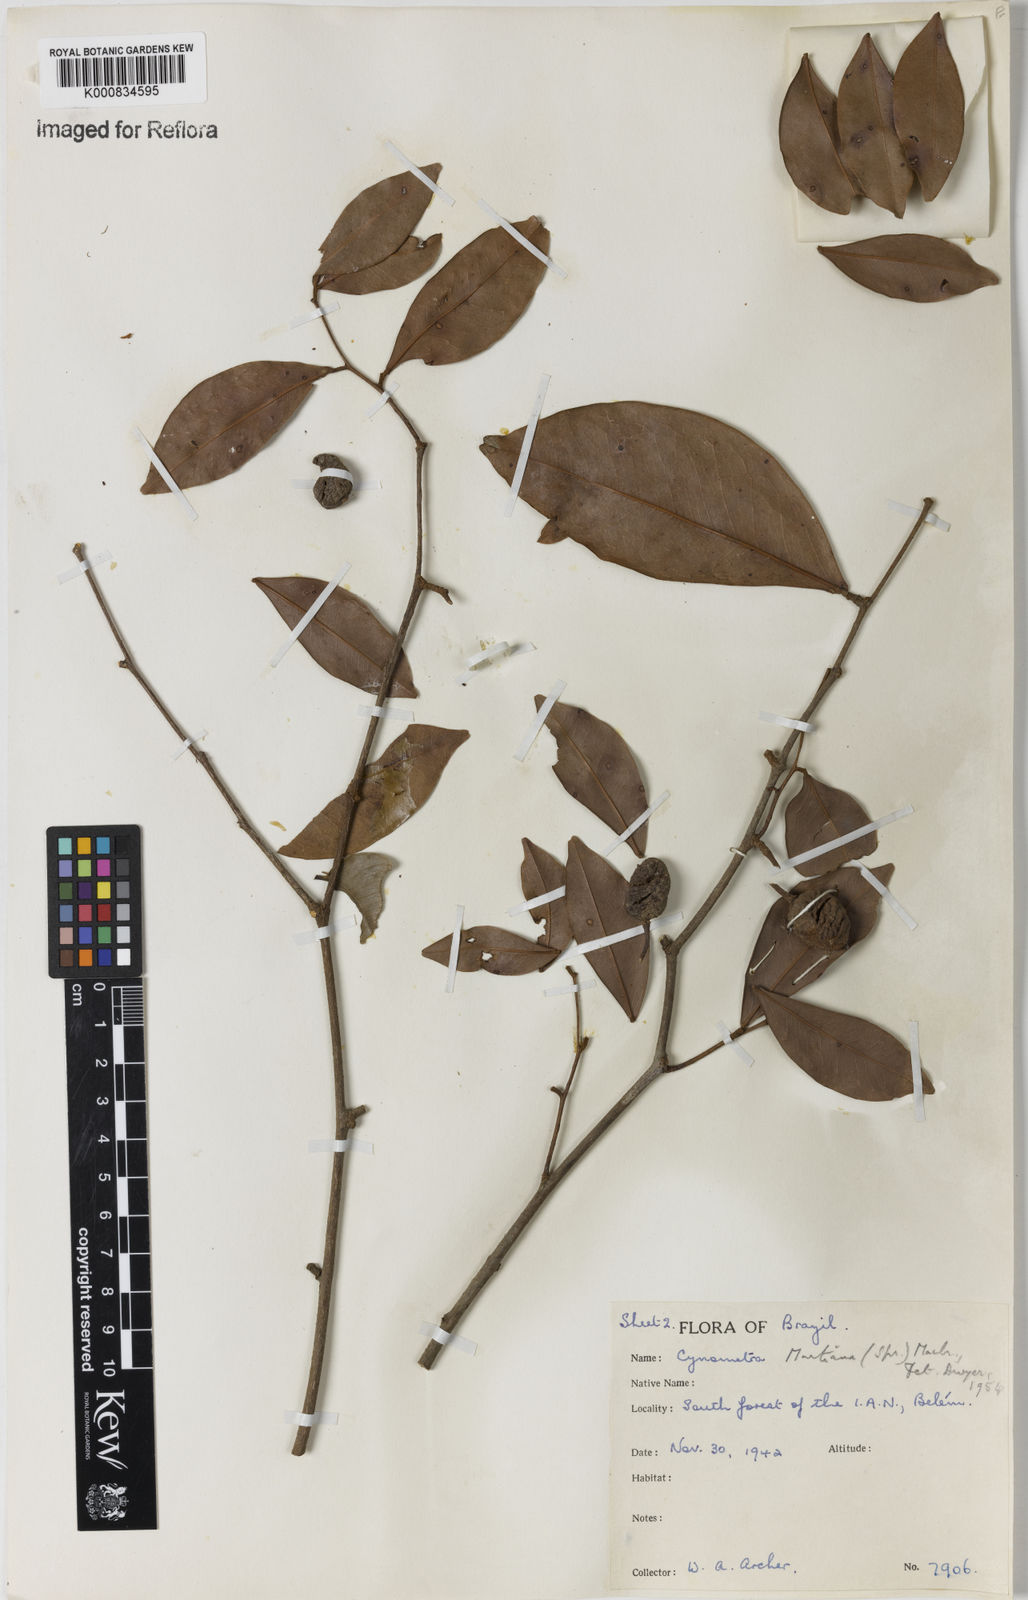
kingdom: Plantae
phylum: Tracheophyta
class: Magnoliopsida
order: Fabales
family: Fabaceae
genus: Cynometra
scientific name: Cynometra phaselocarpa
